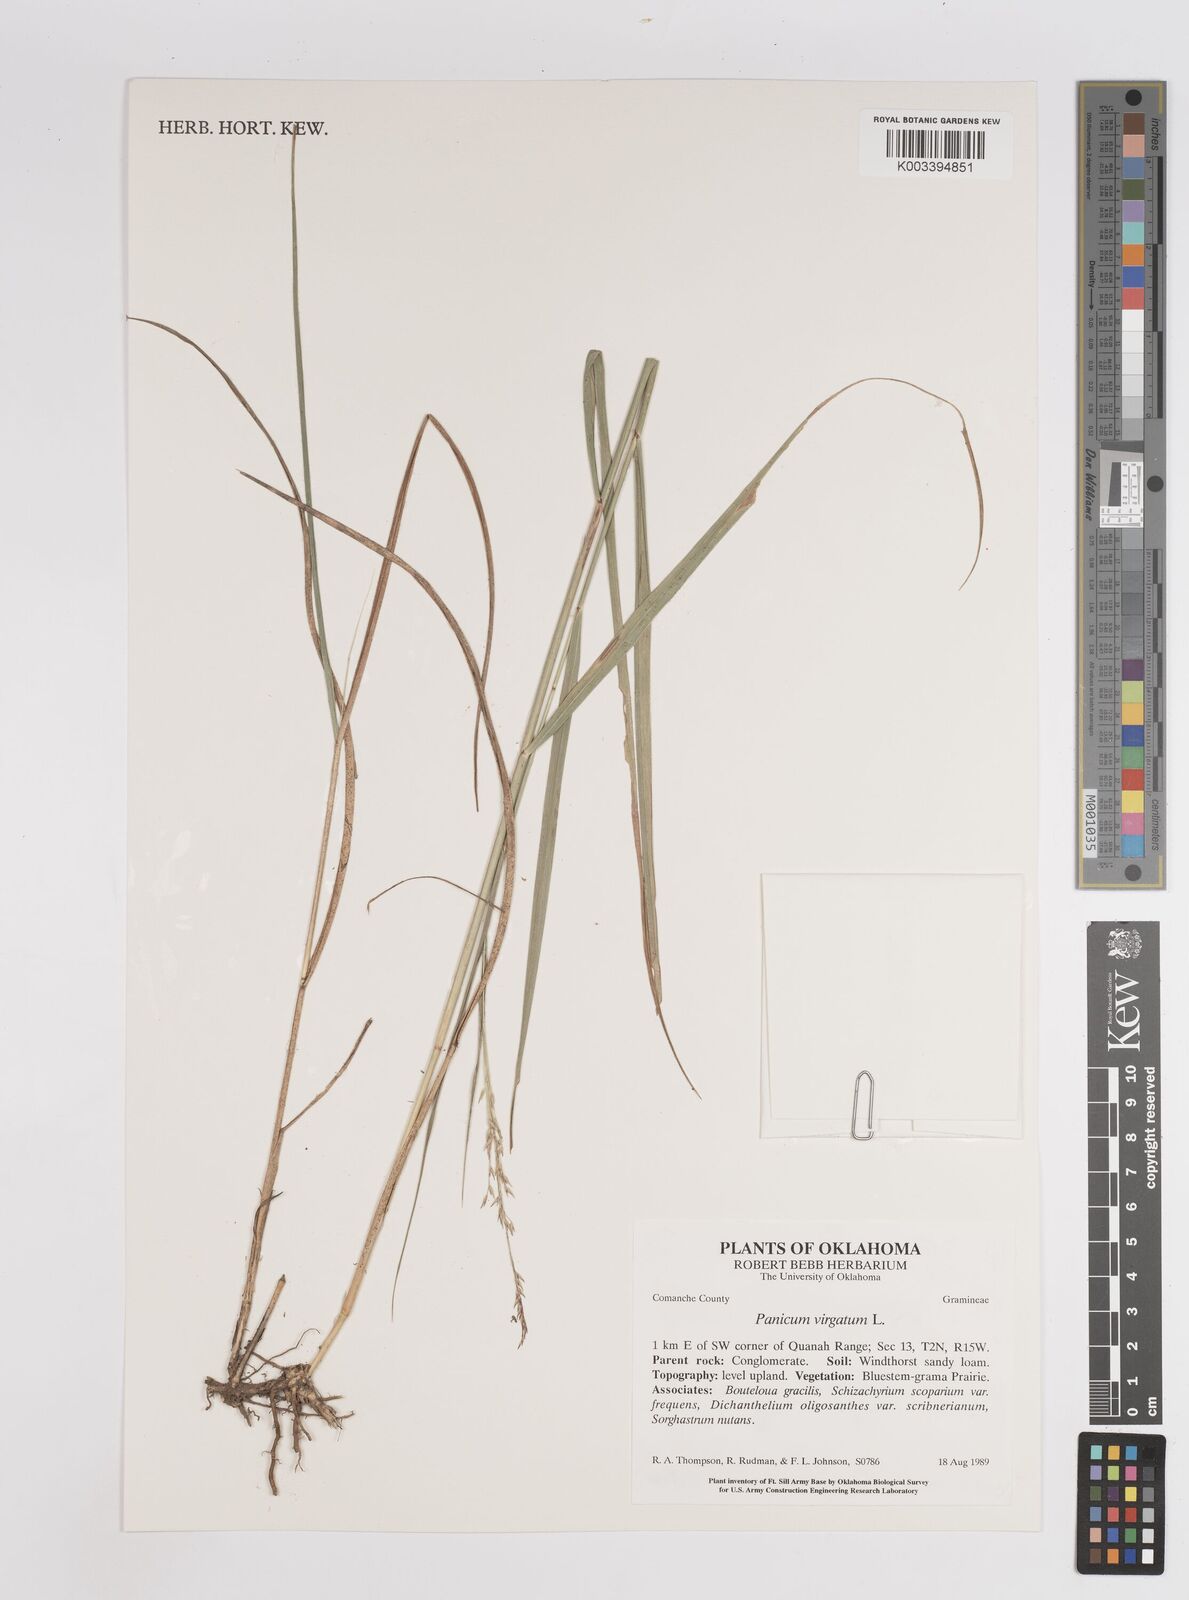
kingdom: Plantae
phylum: Tracheophyta
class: Liliopsida
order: Poales
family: Poaceae
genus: Panicum
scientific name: Panicum virgatum
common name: Switchgrass
